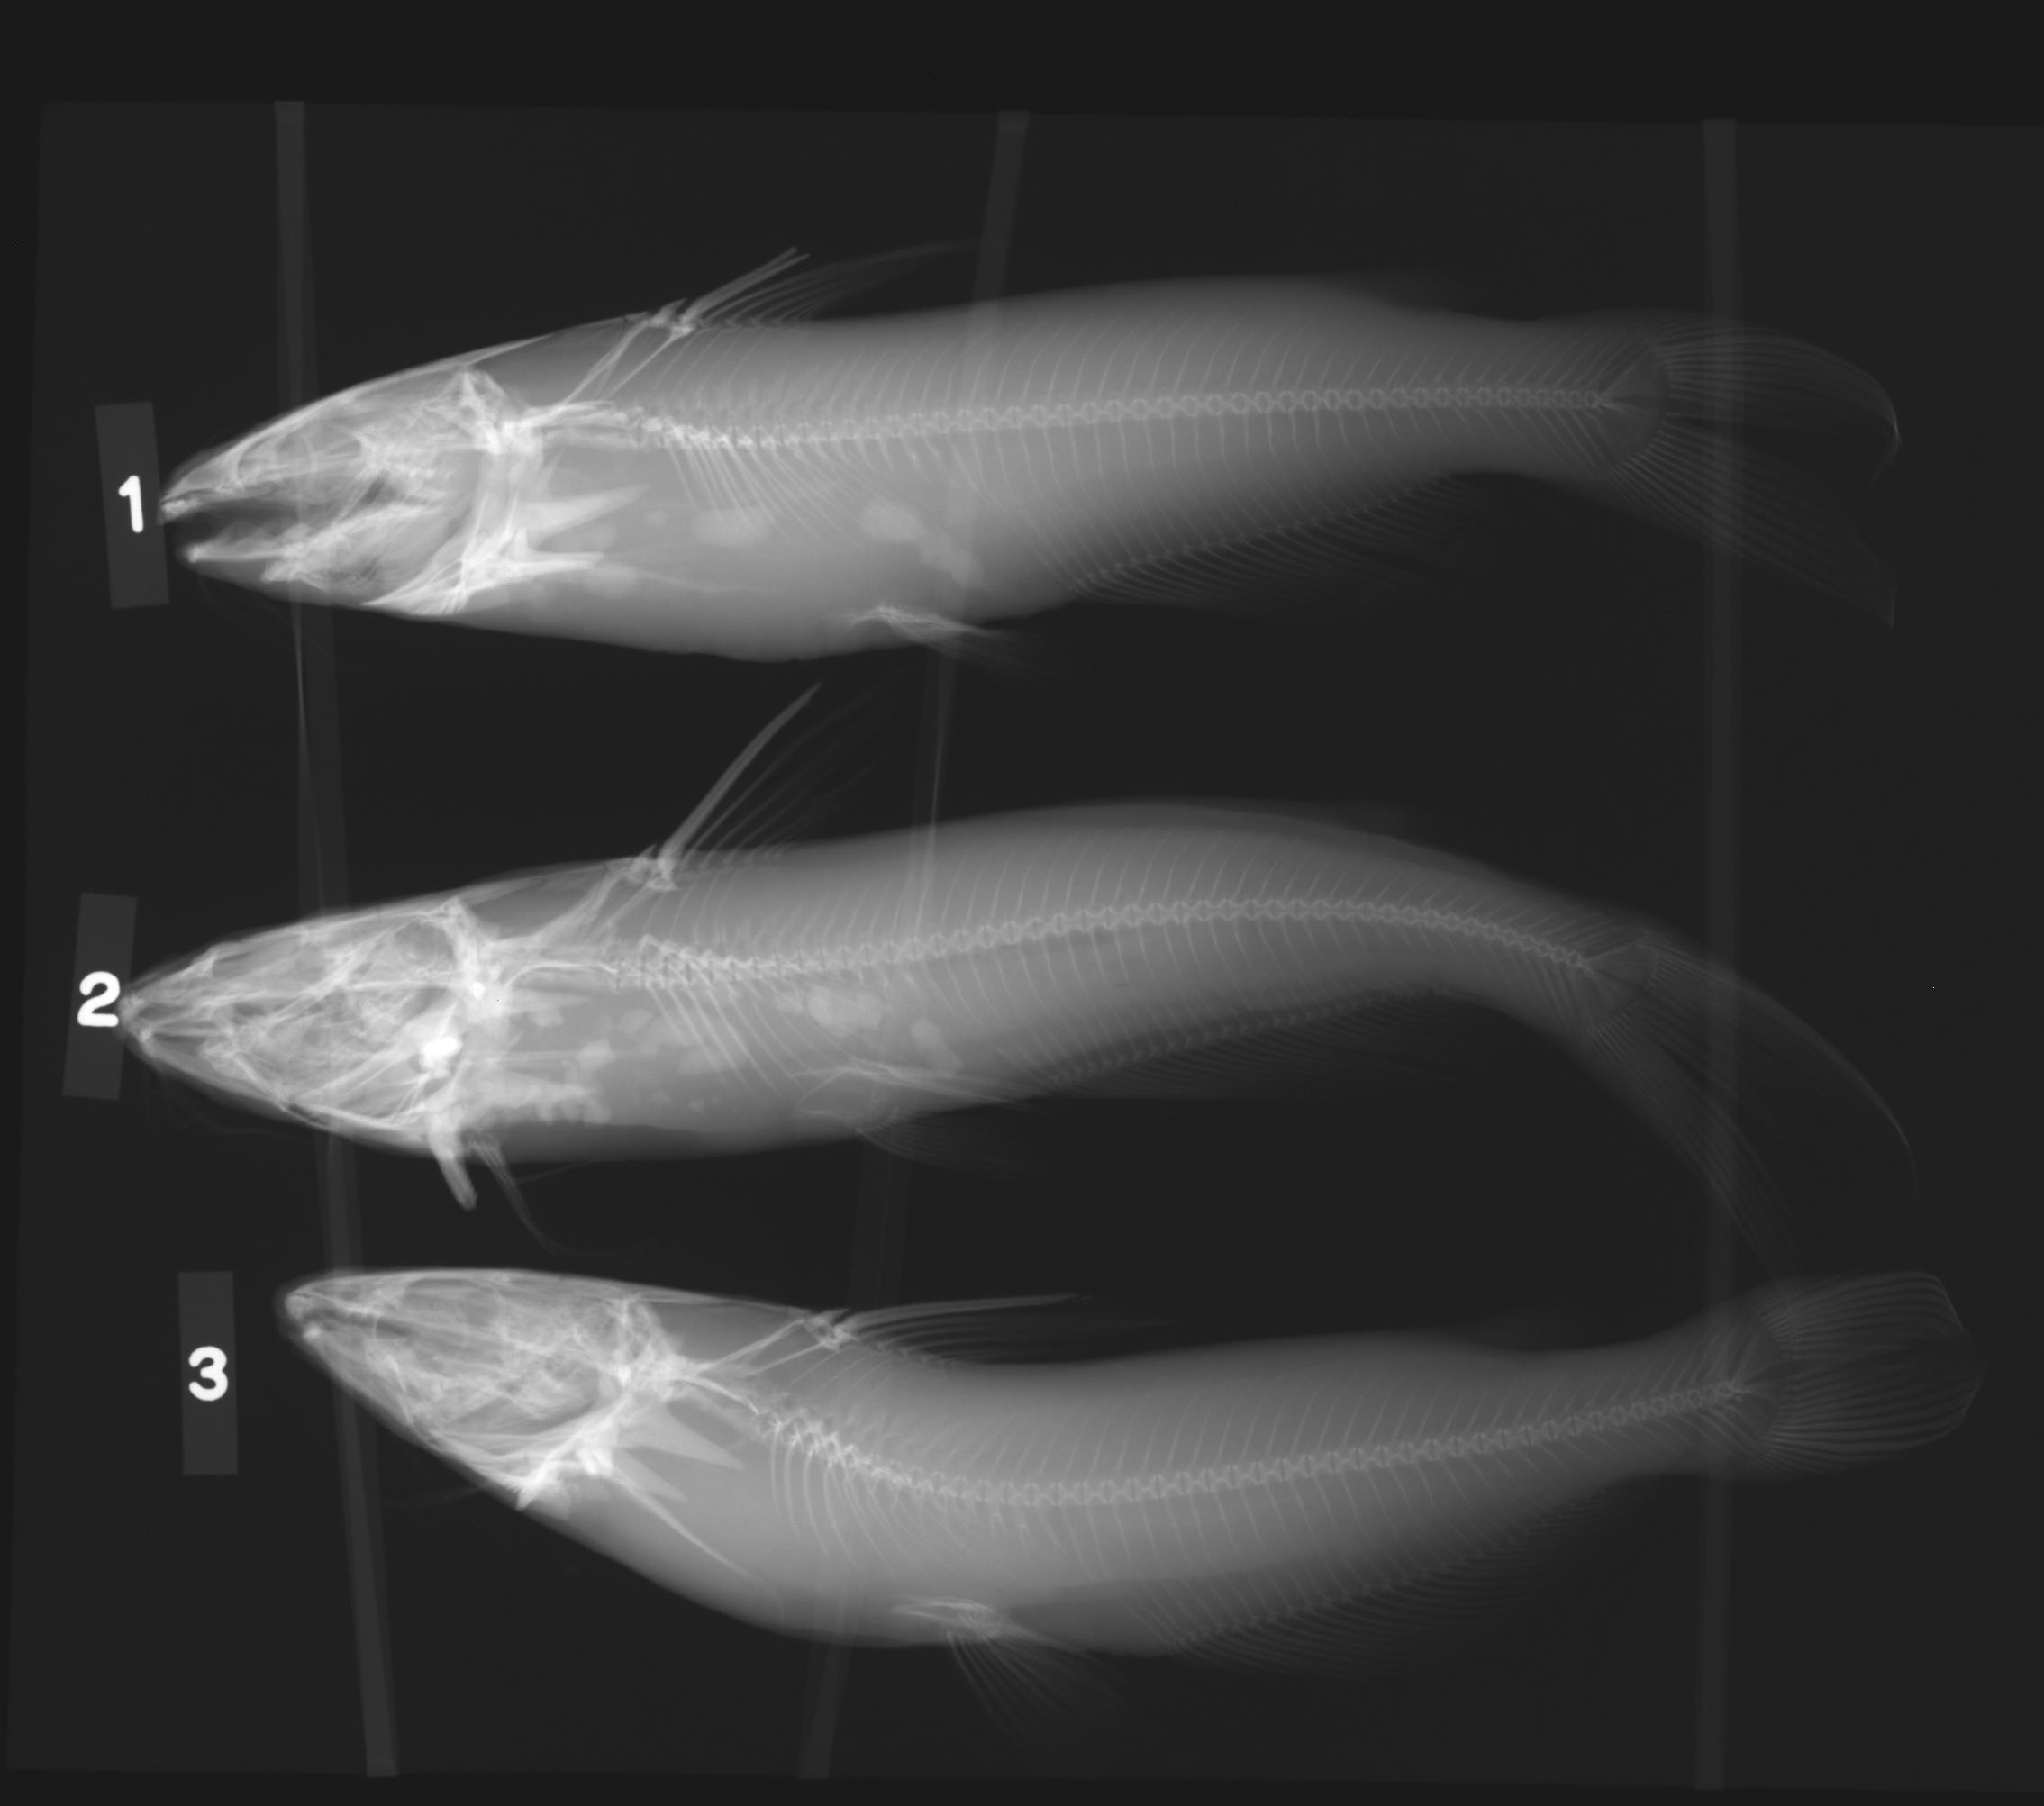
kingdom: Animalia
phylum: Chordata
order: Siluriformes
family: Ictaluridae
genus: Ictalurus
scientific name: Ictalurus
